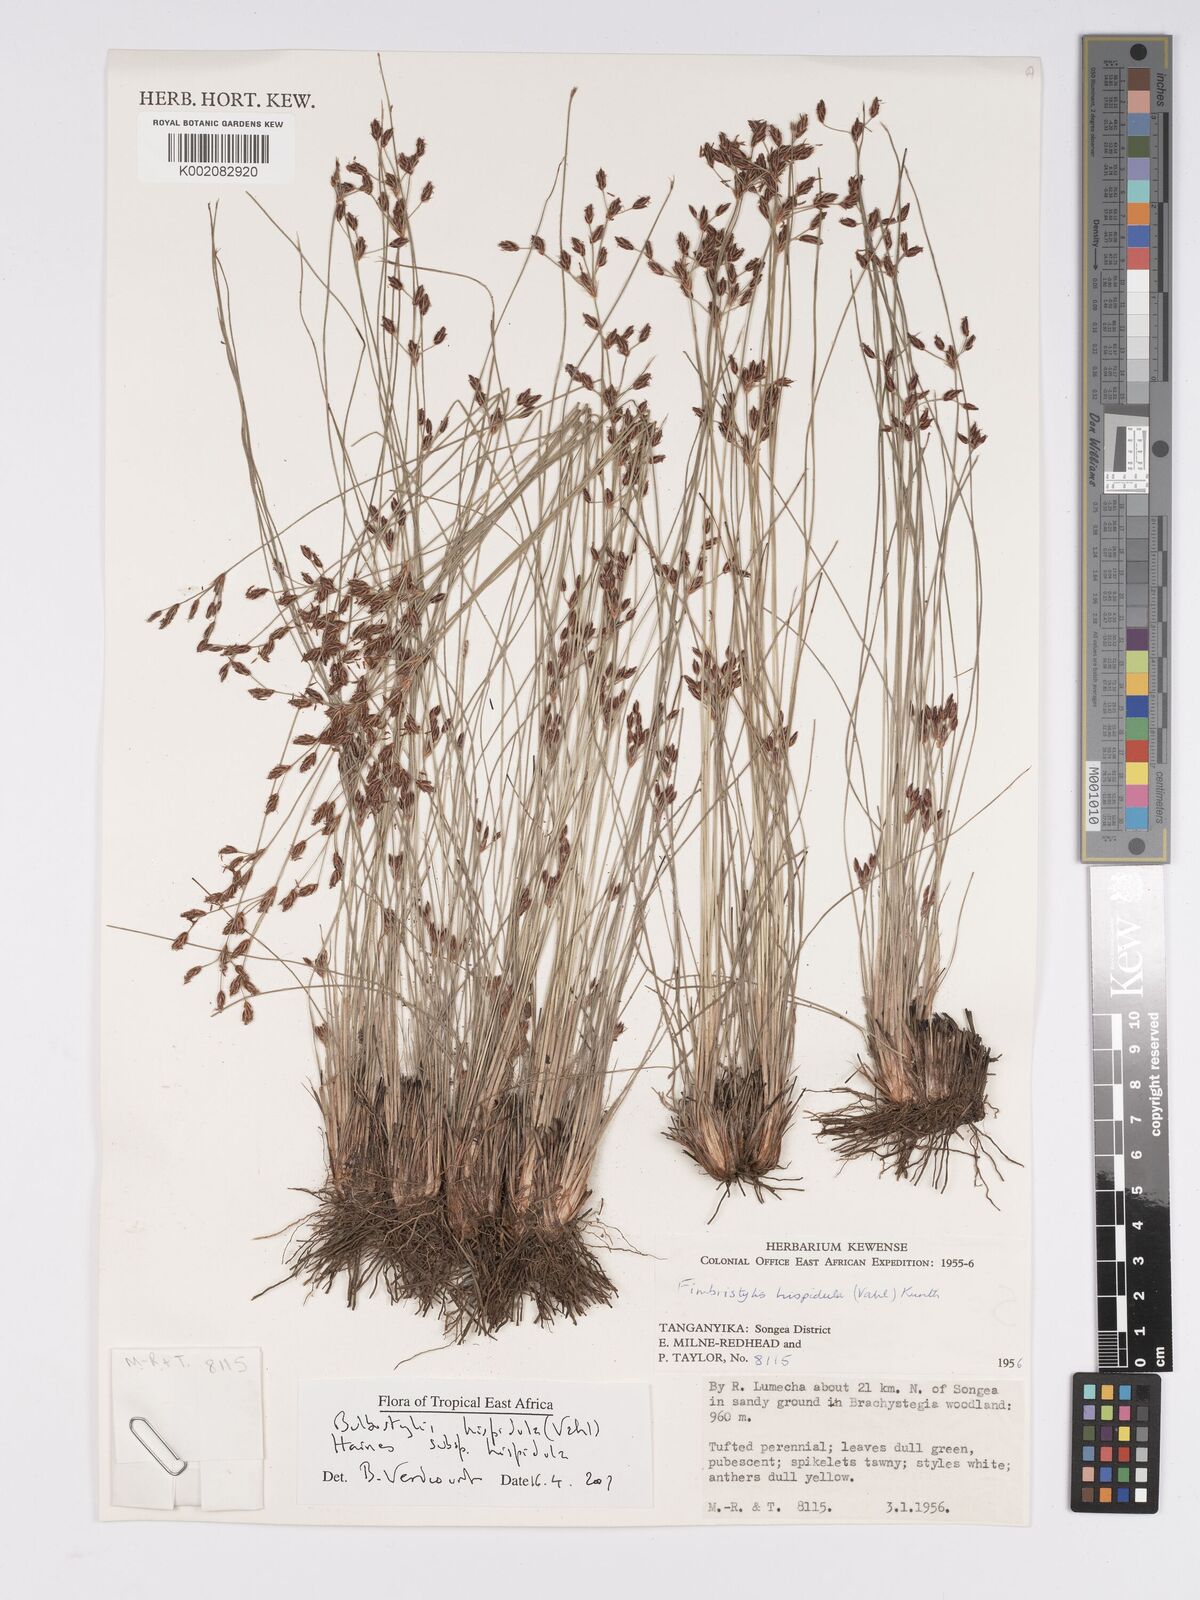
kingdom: Plantae
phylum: Tracheophyta
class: Liliopsida
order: Poales
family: Cyperaceae
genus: Bulbostylis
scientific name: Bulbostylis hispidula
